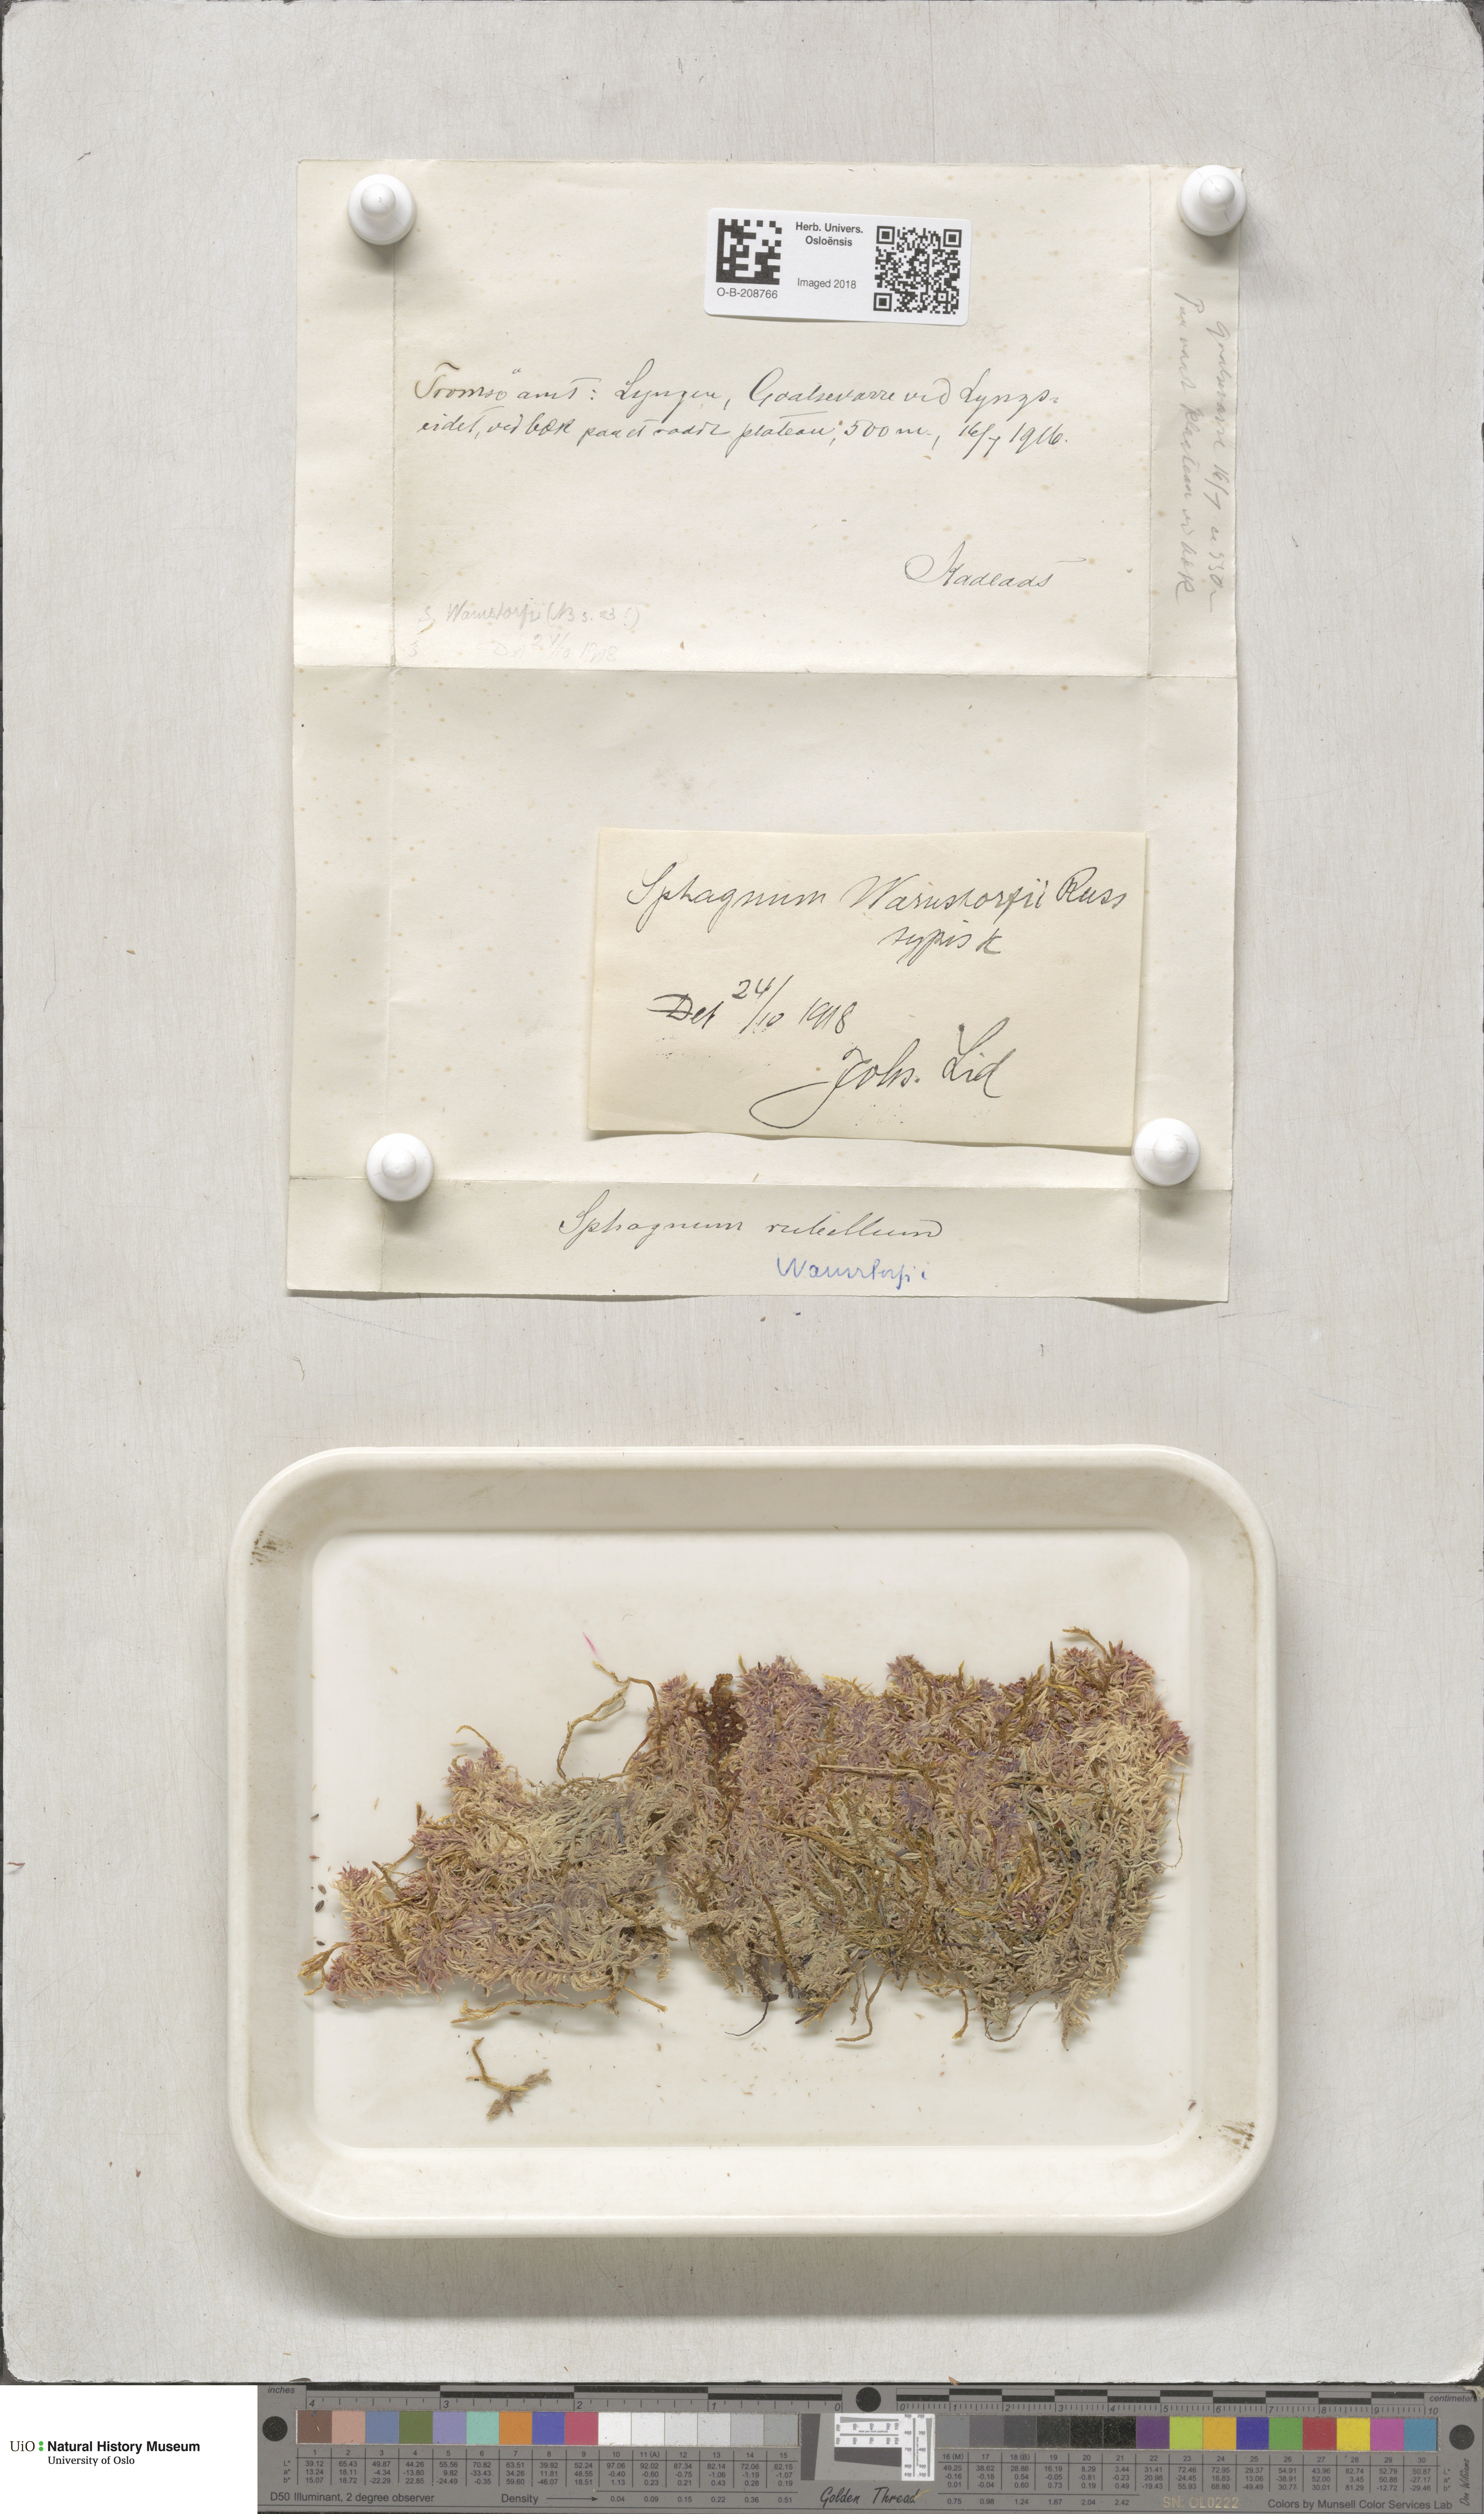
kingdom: Plantae
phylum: Bryophyta
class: Sphagnopsida
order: Sphagnales
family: Sphagnaceae
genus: Sphagnum
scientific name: Sphagnum warnstorfii
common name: Warnstorf's peat moss
